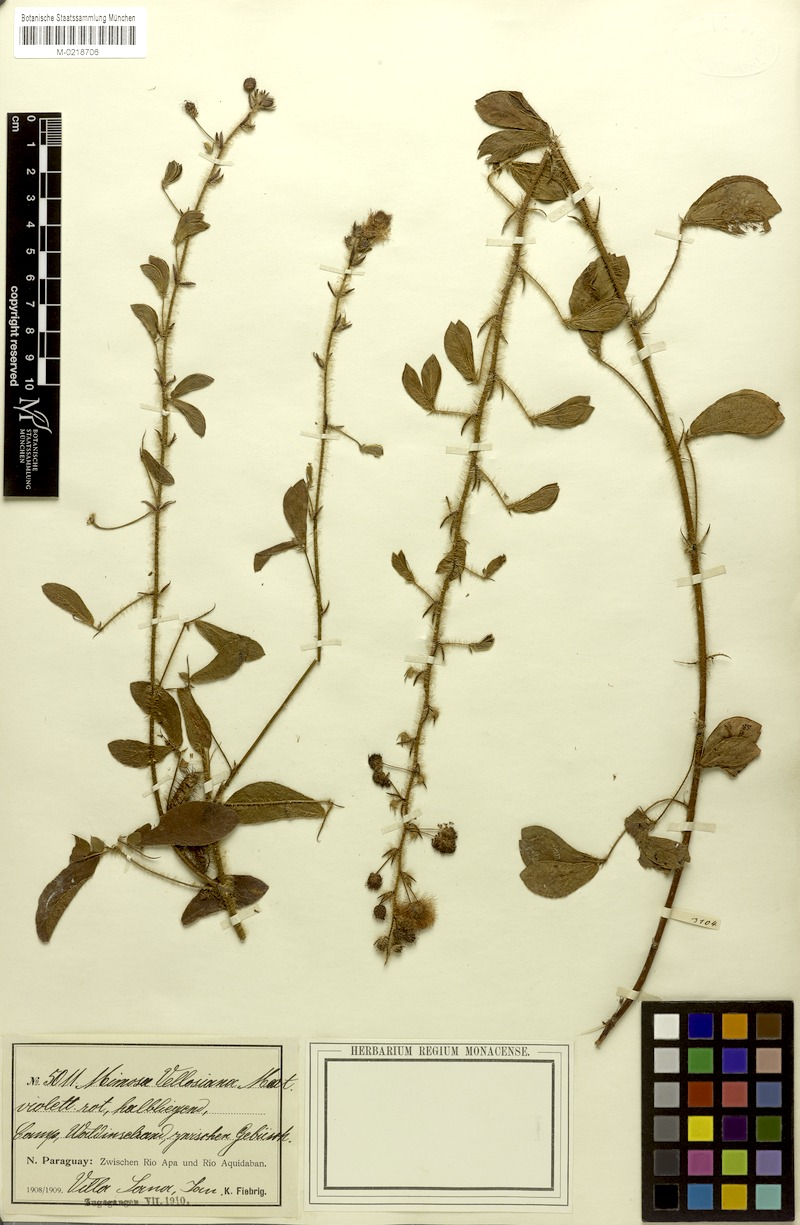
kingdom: Plantae
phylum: Tracheophyta
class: Magnoliopsida
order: Fabales
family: Fabaceae
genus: Mimosa
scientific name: Mimosa velloziana
